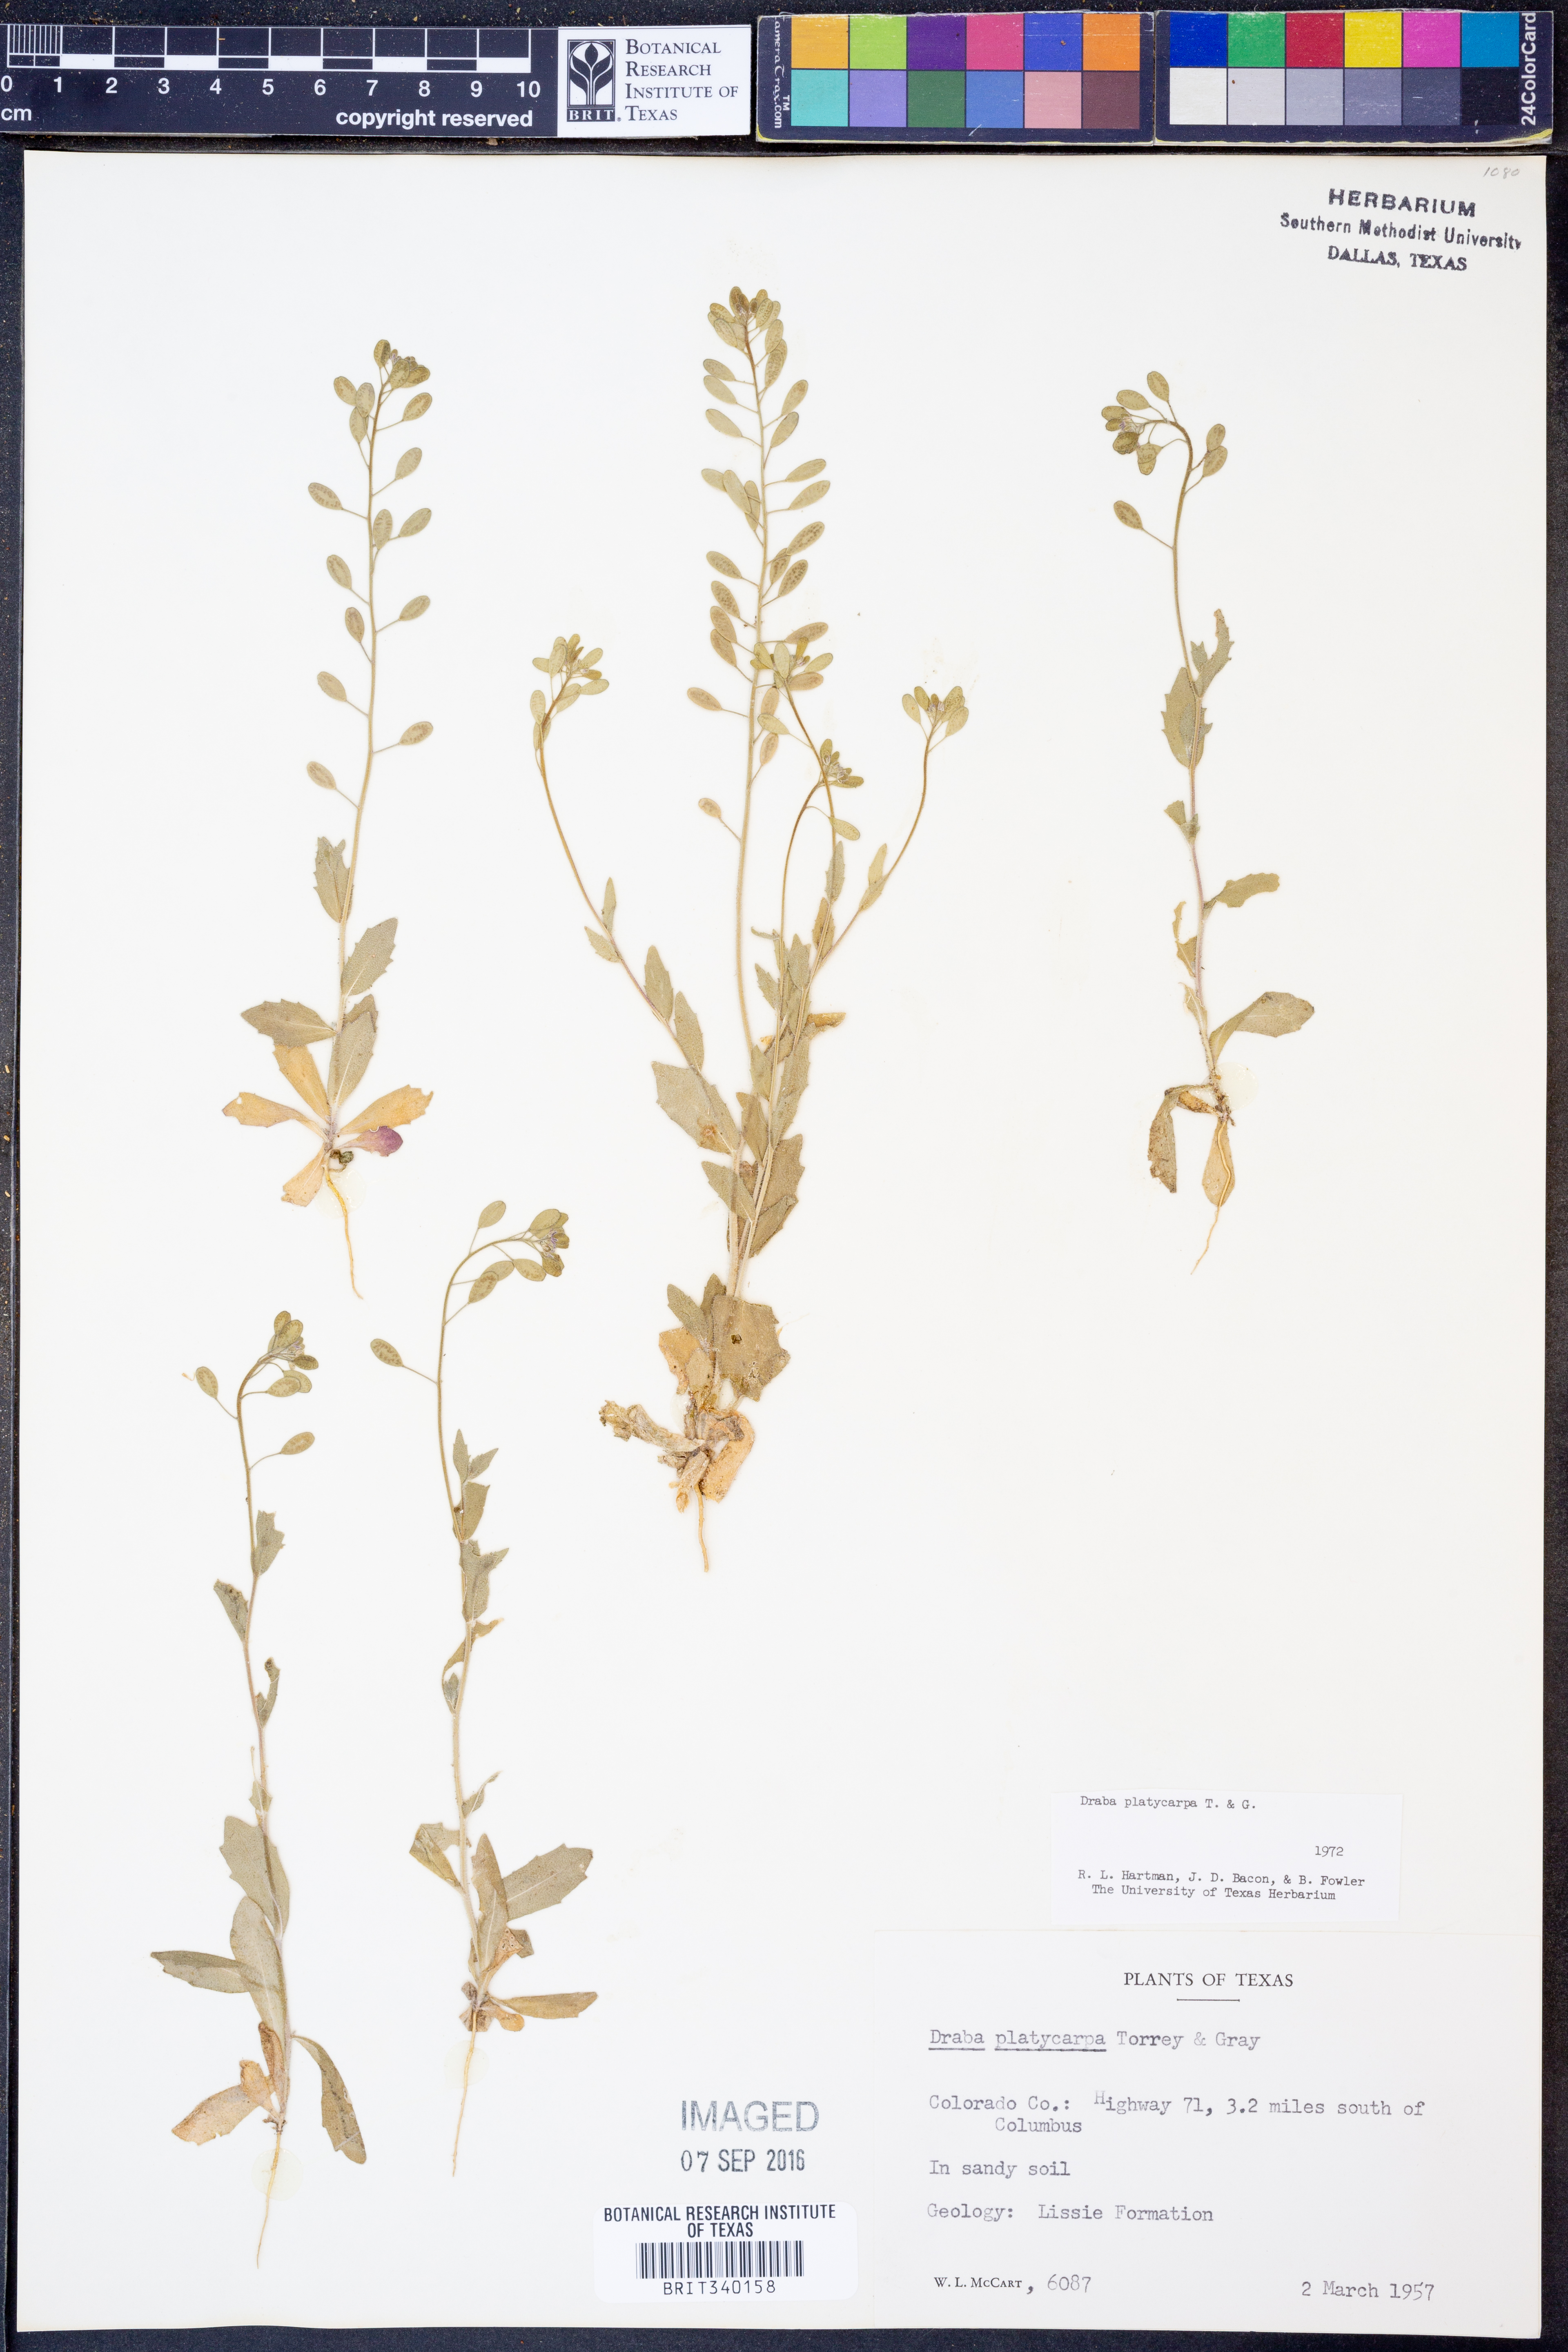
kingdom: Plantae
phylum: Tracheophyta
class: Magnoliopsida
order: Brassicales
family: Brassicaceae
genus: Tomostima
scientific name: Tomostima platycarpa
